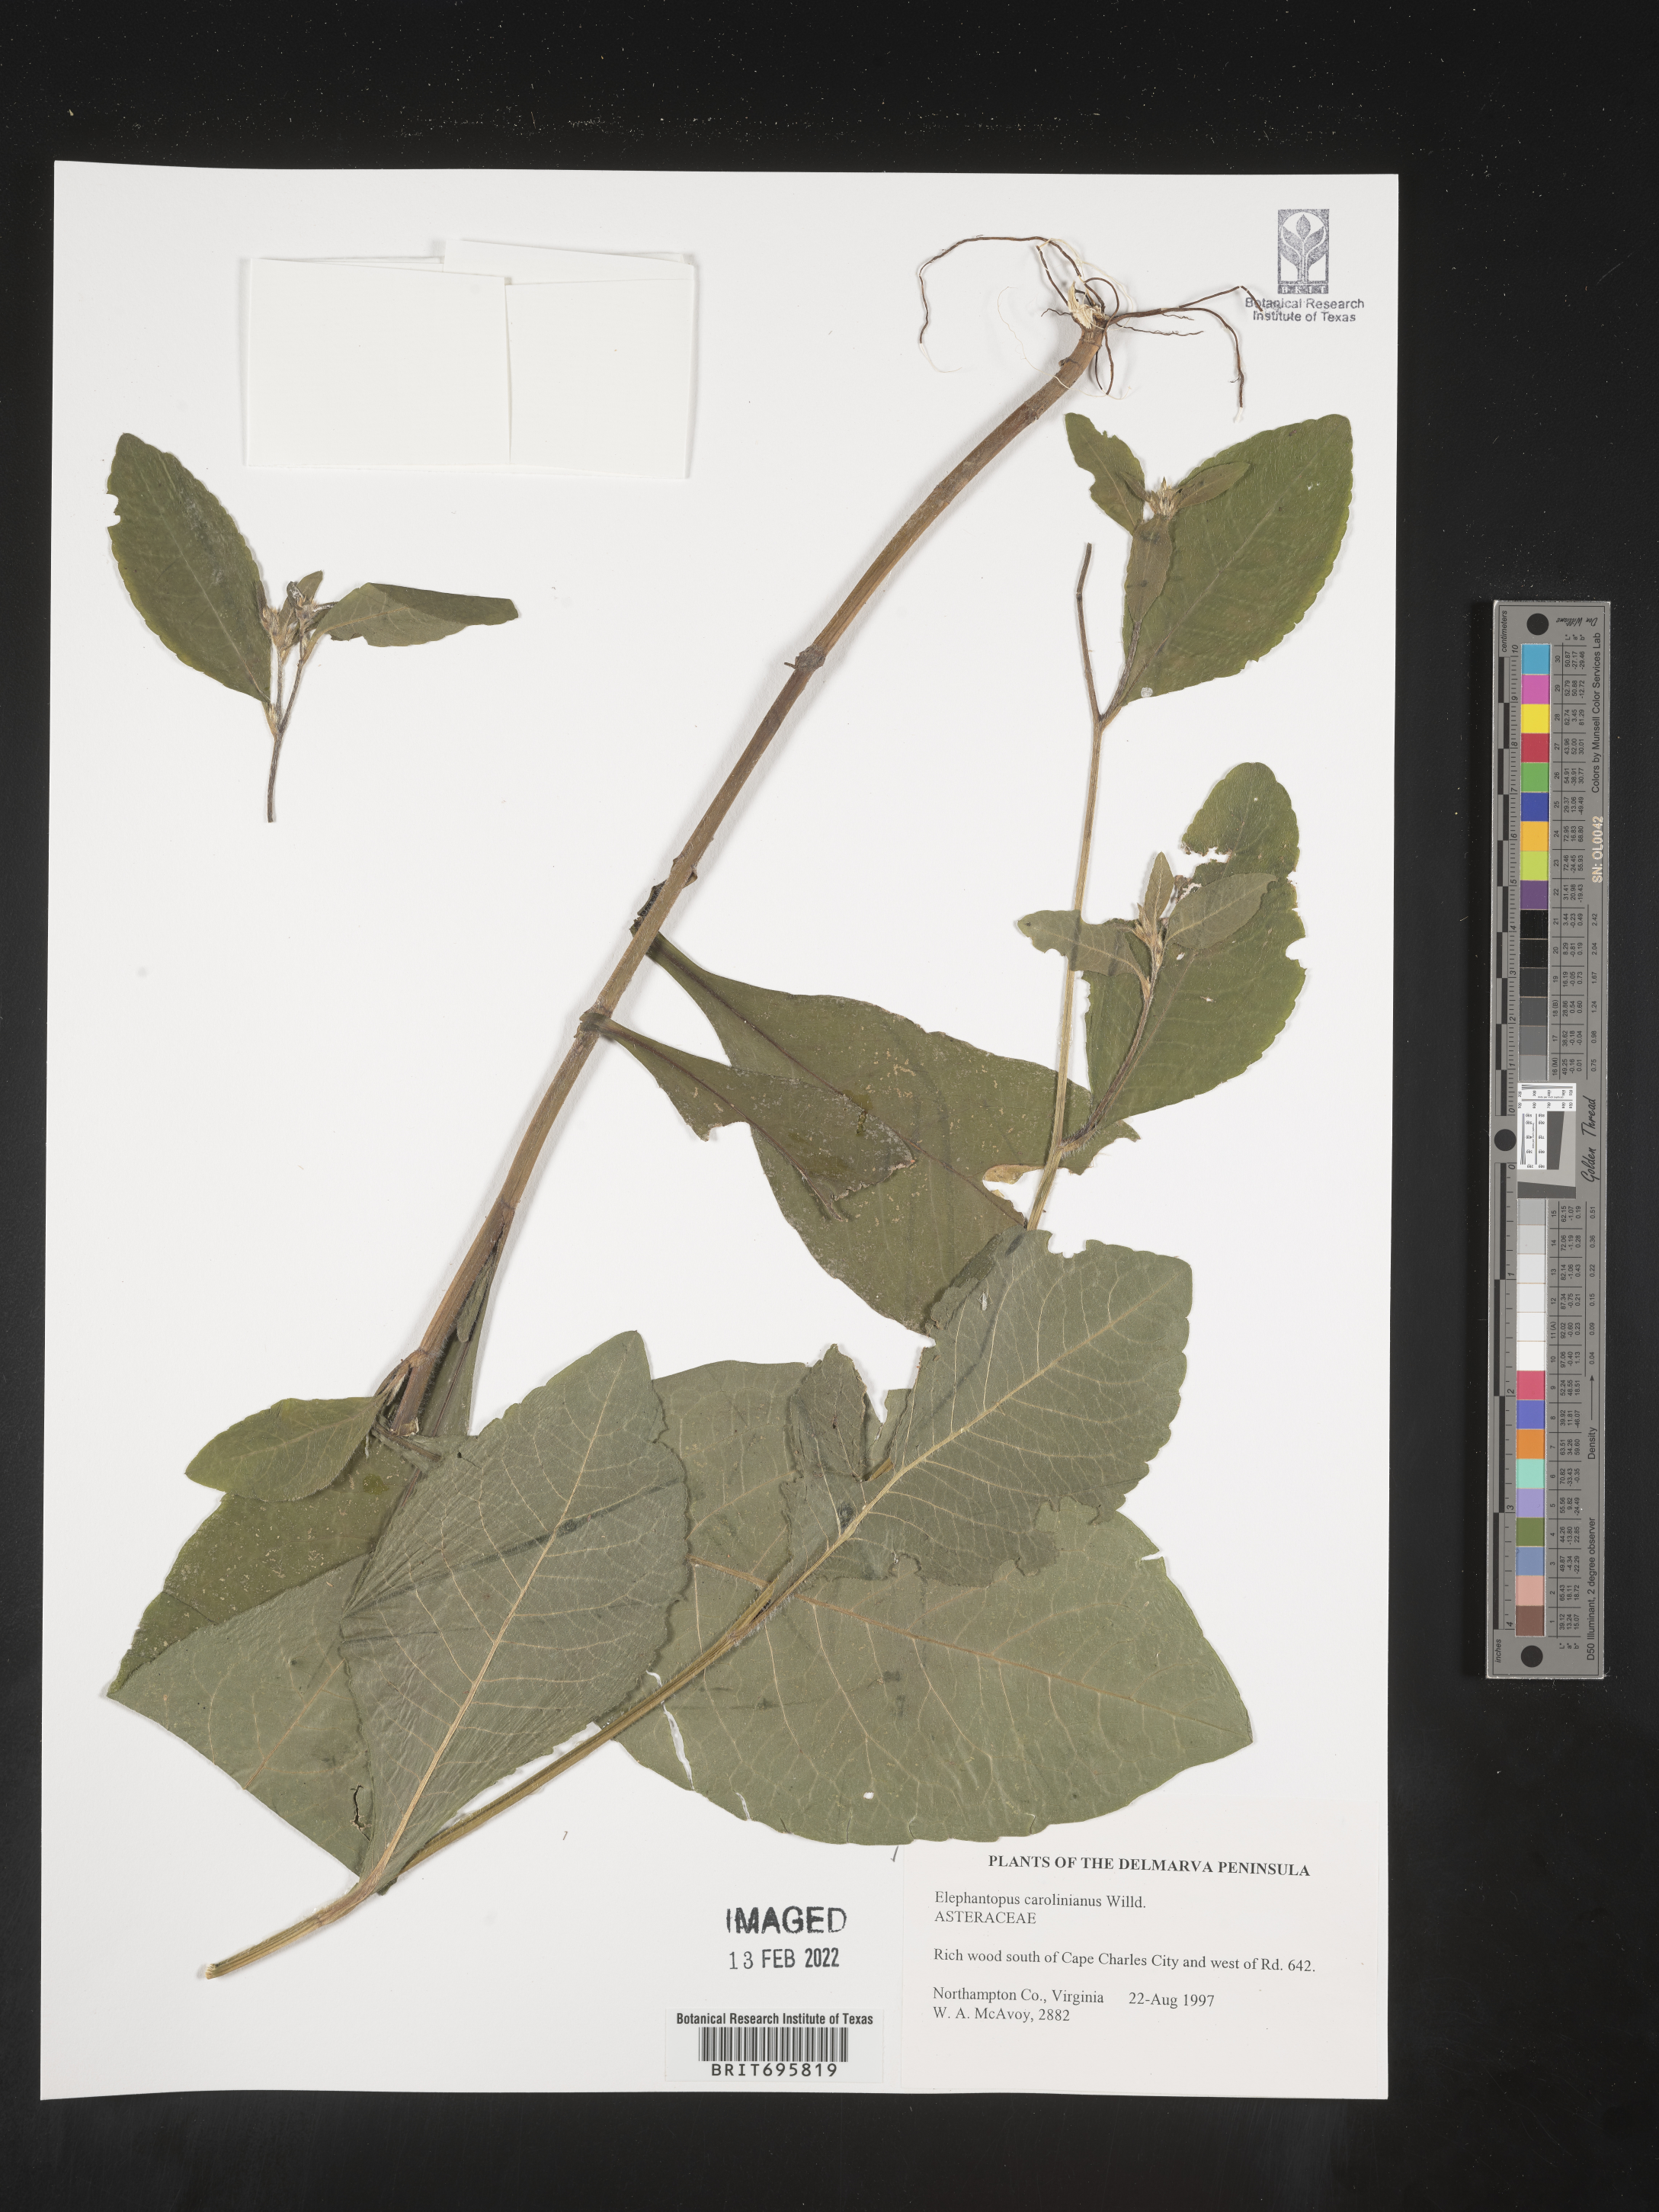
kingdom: Plantae
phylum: Tracheophyta
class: Magnoliopsida
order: Asterales
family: Asteraceae
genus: Elephantopus
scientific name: Elephantopus carolinianus
